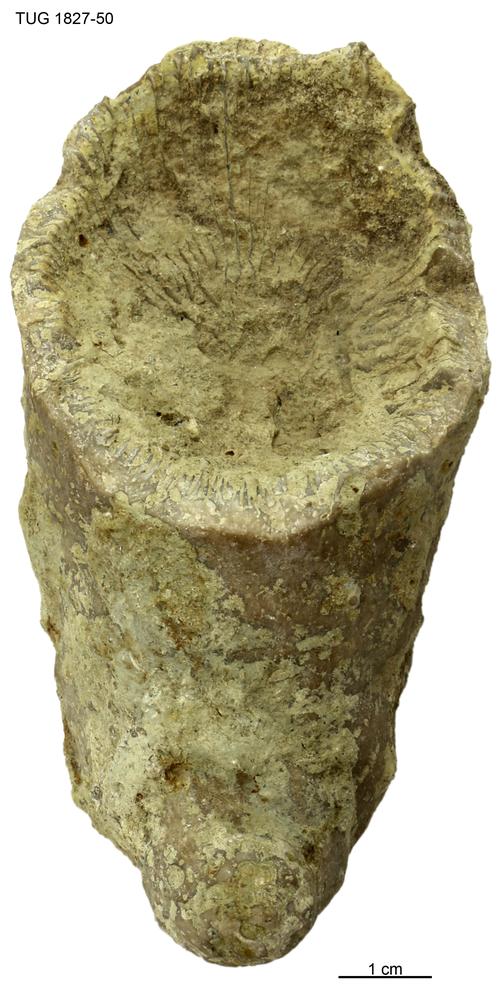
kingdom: Animalia
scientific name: Animalia
